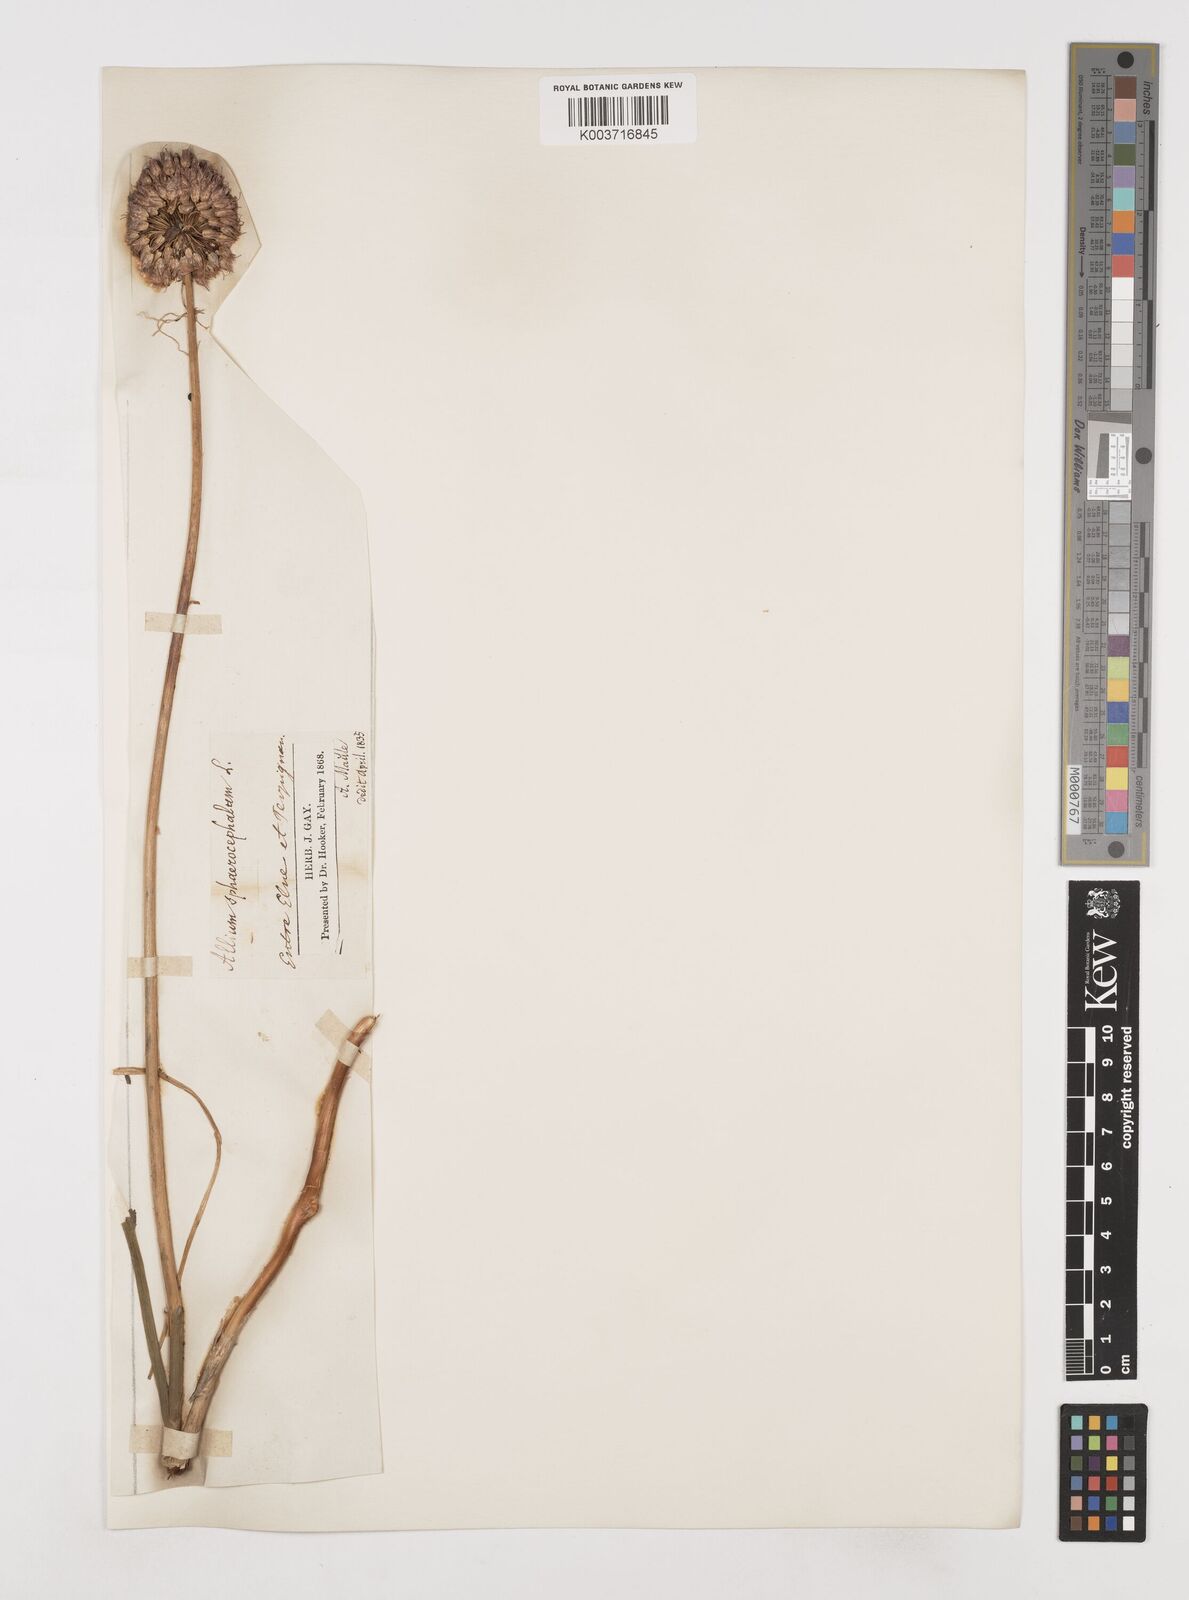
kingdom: Plantae
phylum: Tracheophyta
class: Liliopsida
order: Asparagales
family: Amaryllidaceae
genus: Allium
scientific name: Allium sphaerocephalon
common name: Round-headed leek
